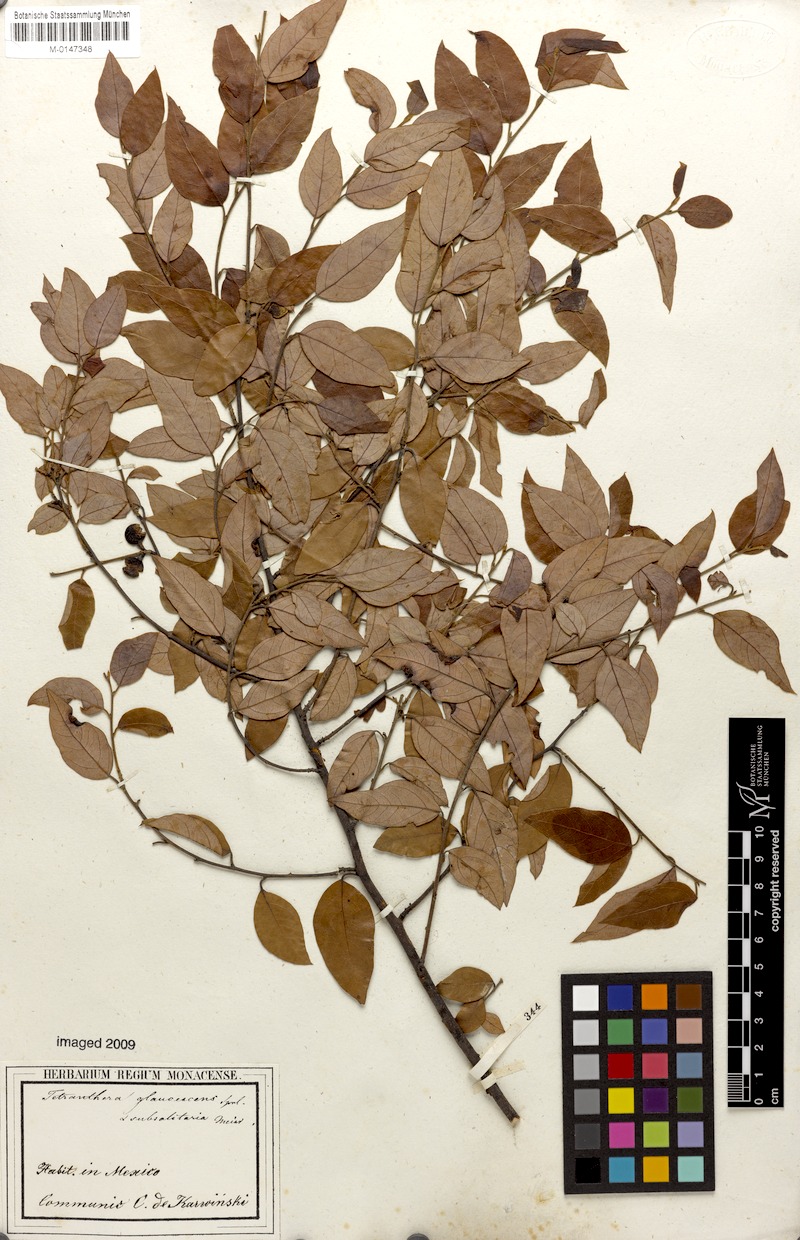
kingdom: Plantae
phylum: Tracheophyta
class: Magnoliopsida
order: Laurales
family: Lauraceae
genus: Licaria
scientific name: Licaria triandra
